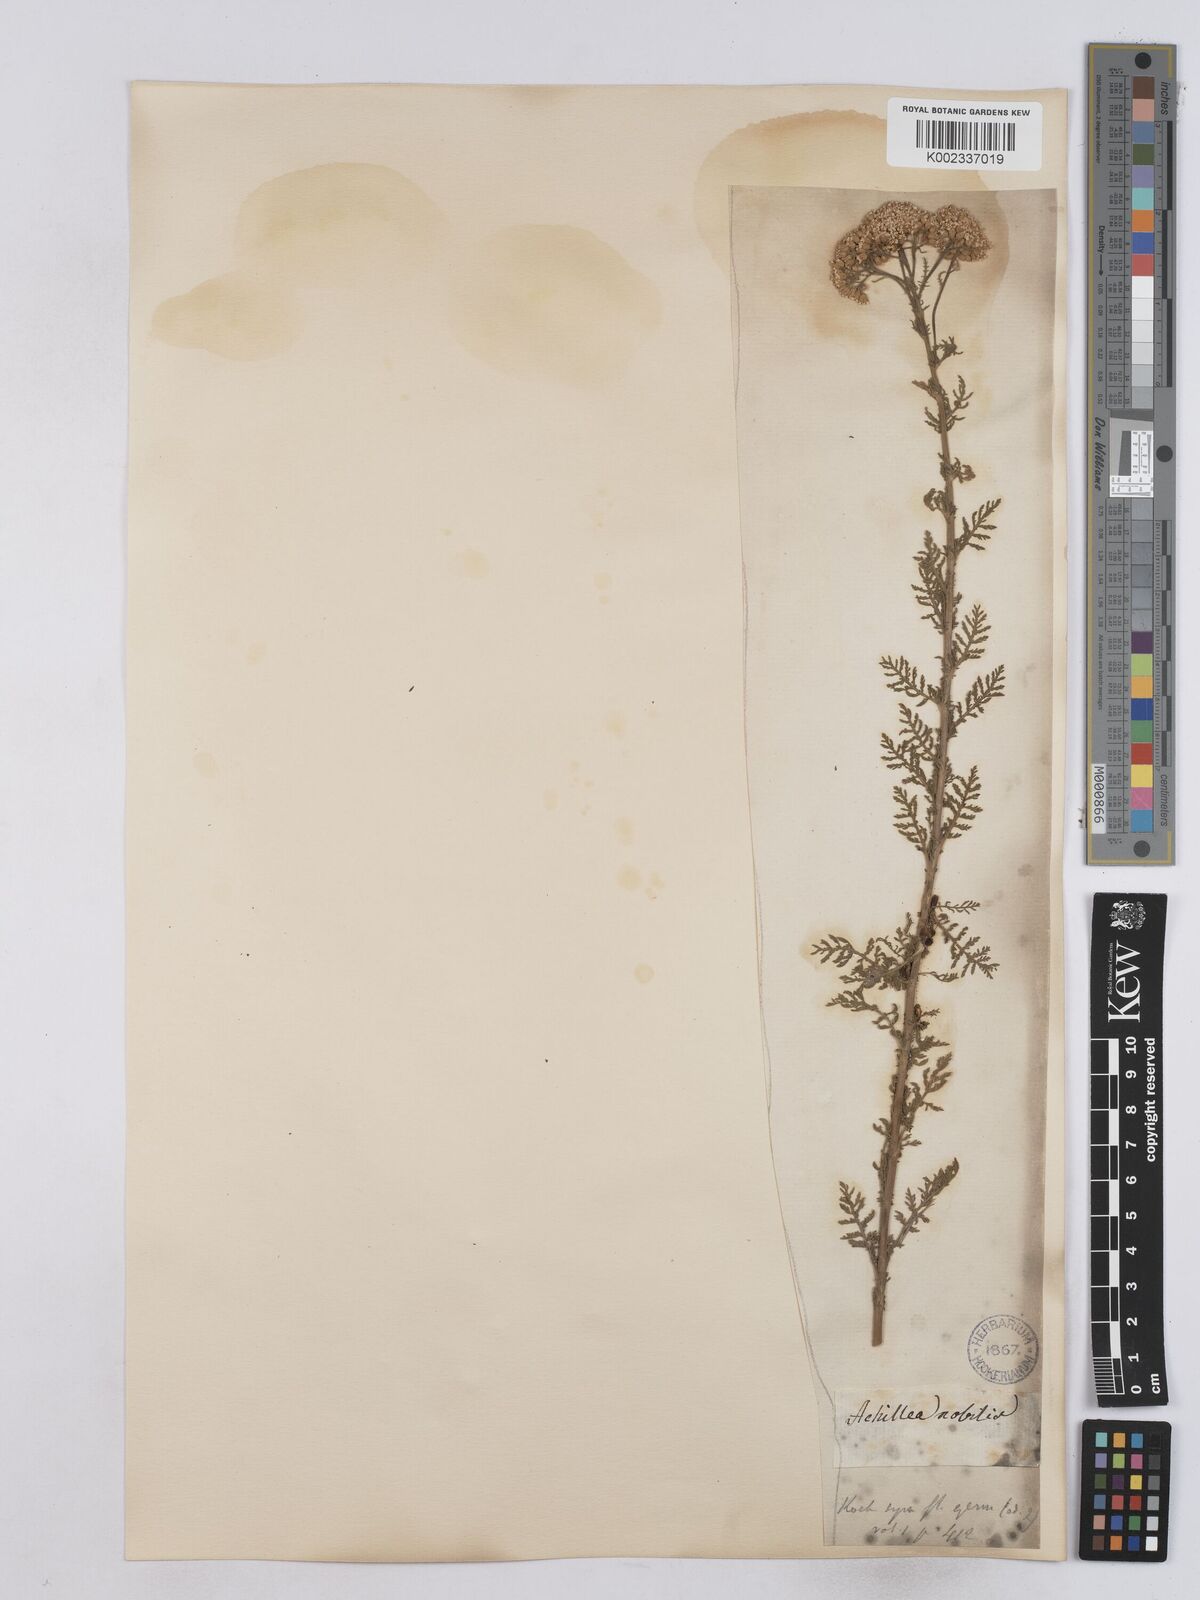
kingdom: Plantae
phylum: Tracheophyta
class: Magnoliopsida
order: Asterales
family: Asteraceae
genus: Achillea
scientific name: Achillea nobilis
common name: Noble yarrow
